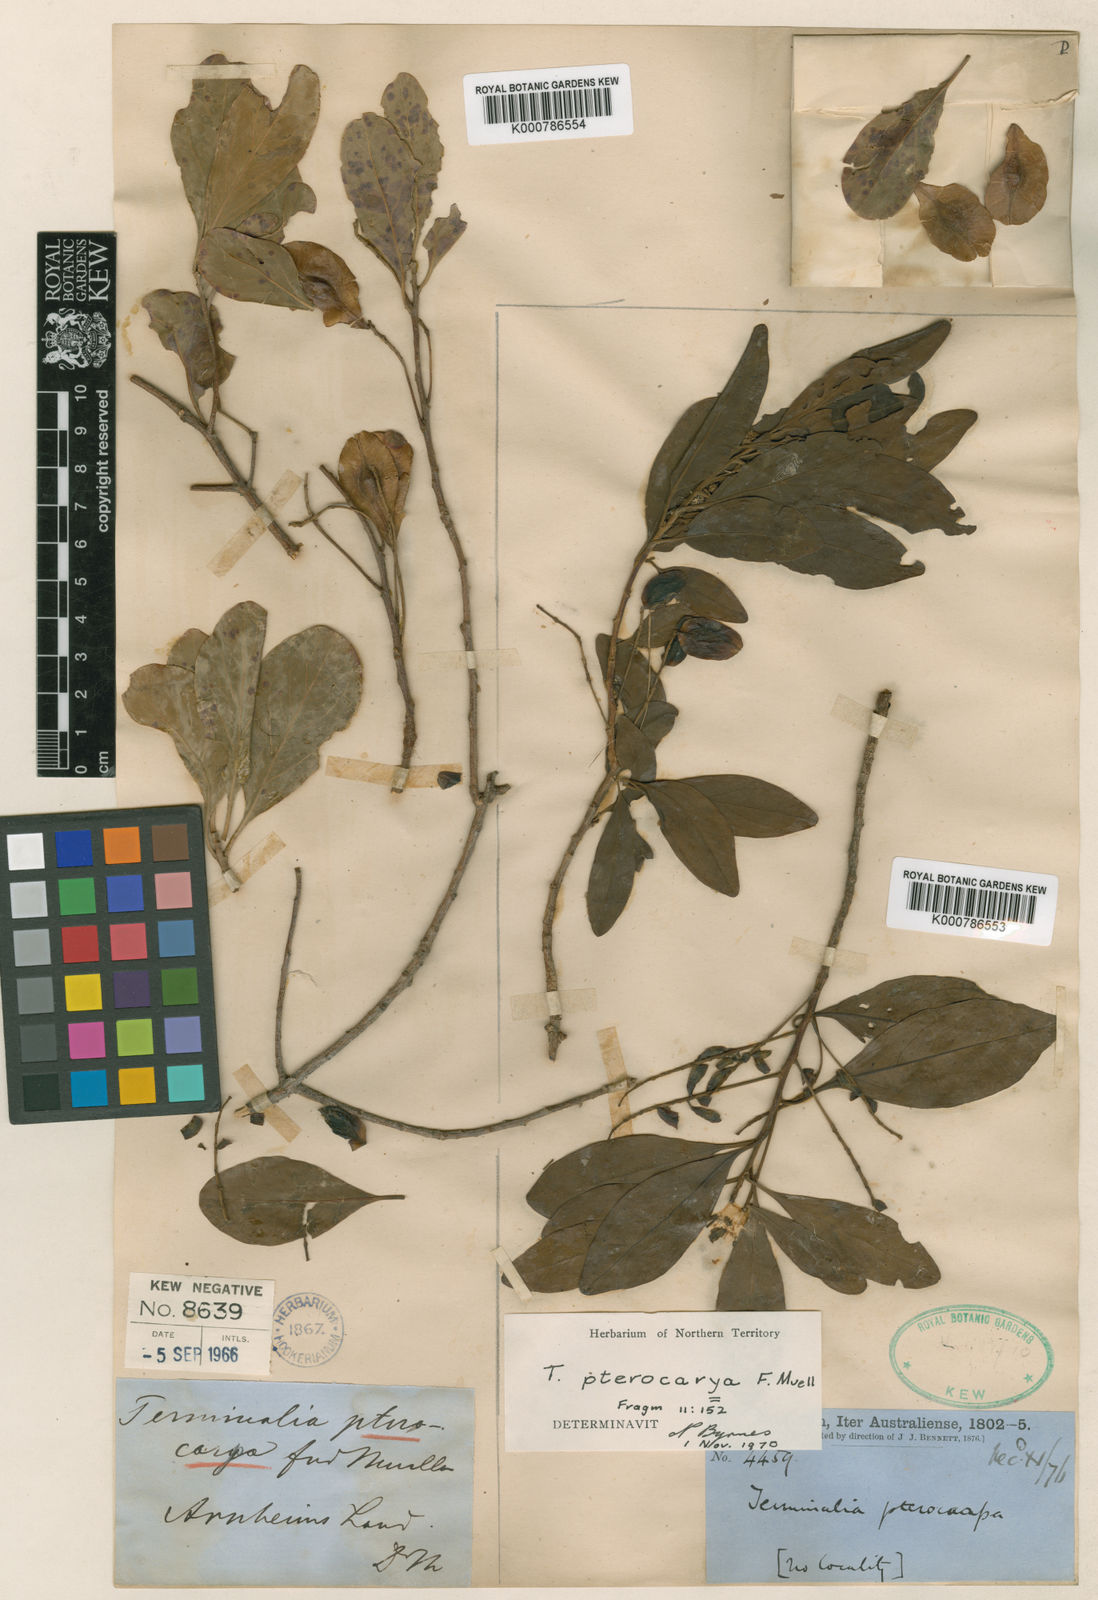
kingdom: Plantae
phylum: Tracheophyta
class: Magnoliopsida
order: Myrtales
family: Combretaceae
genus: Terminalia
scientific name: Terminalia
